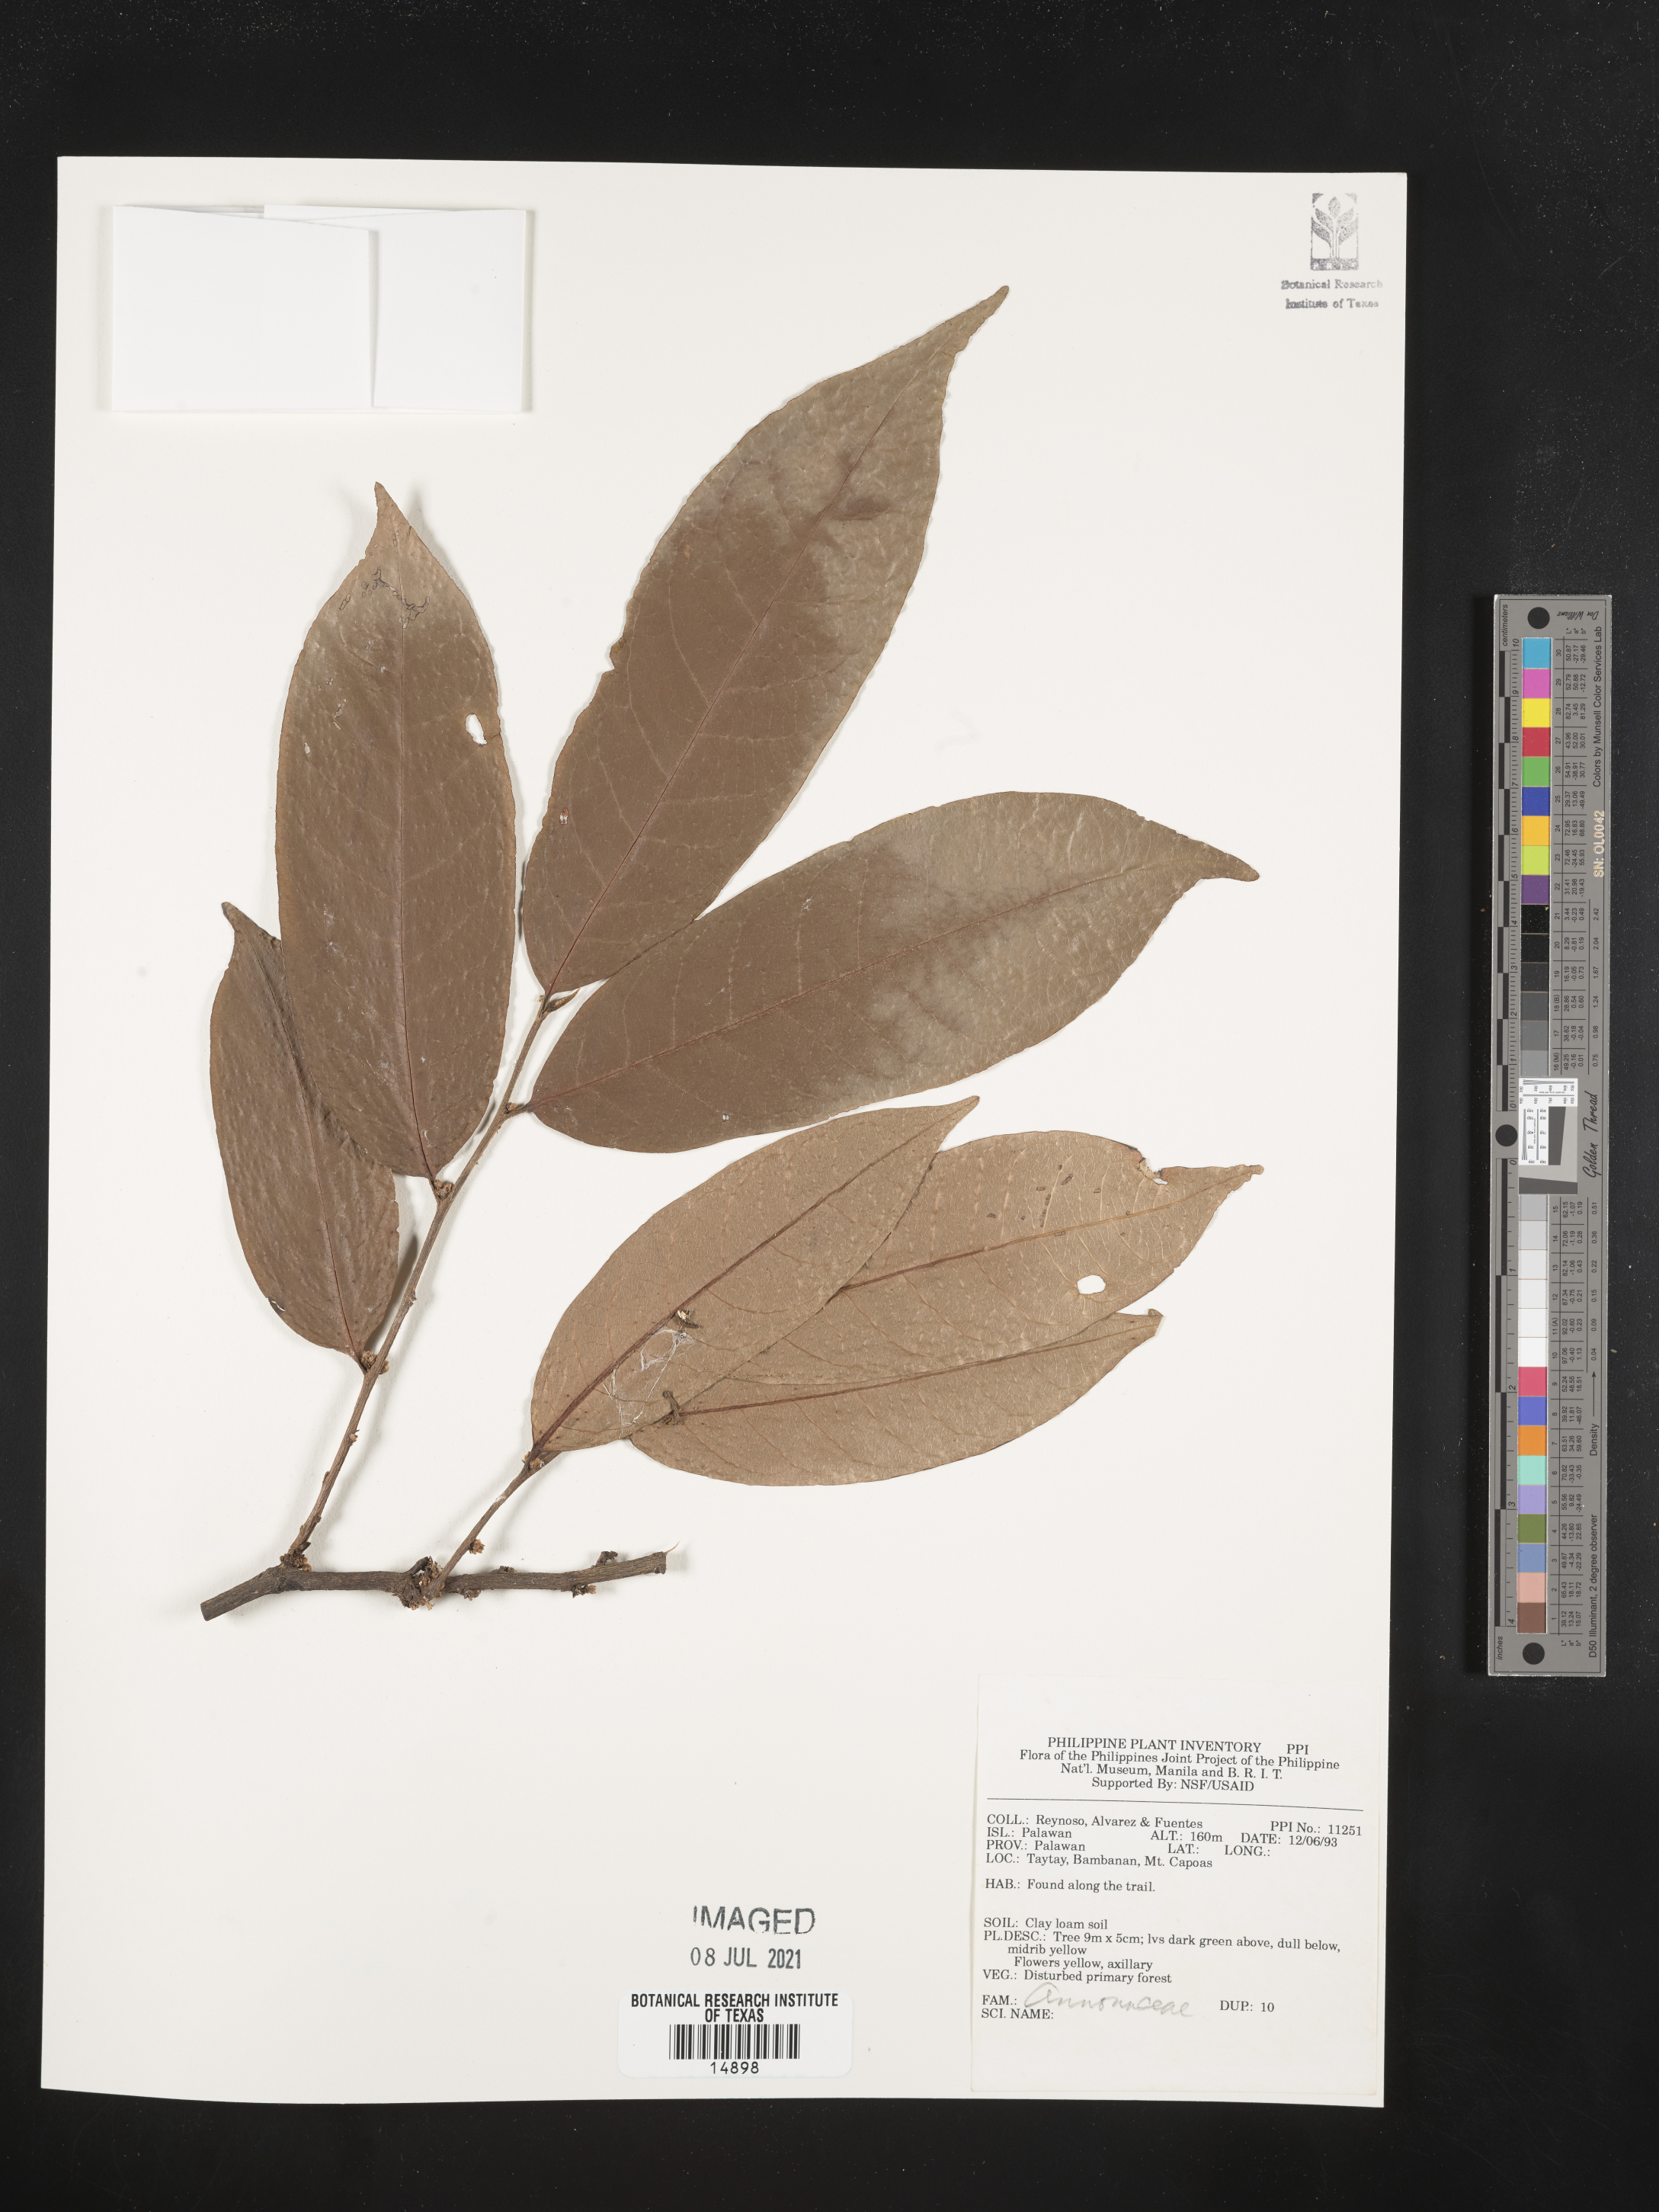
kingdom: Plantae
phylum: Tracheophyta
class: Magnoliopsida
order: Magnoliales
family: Annonaceae
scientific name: Annonaceae
